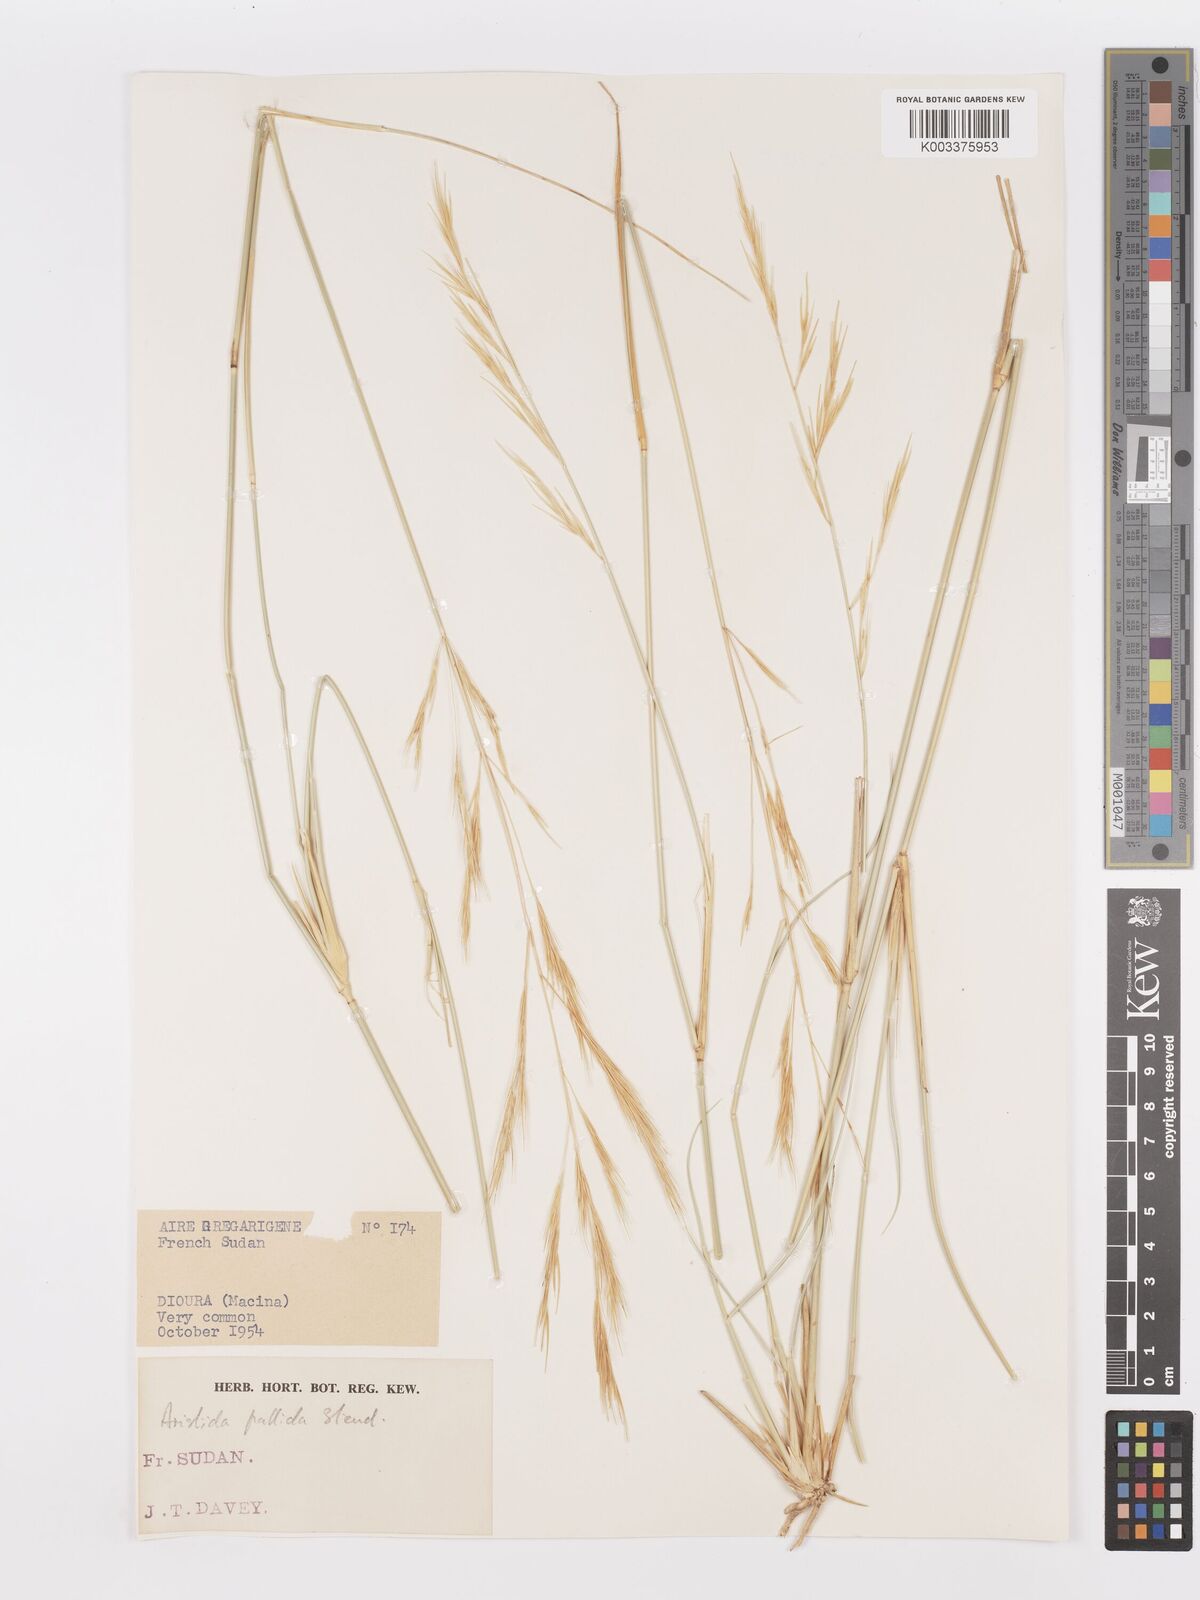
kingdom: Plantae
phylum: Tracheophyta
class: Liliopsida
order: Poales
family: Poaceae
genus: Aristida
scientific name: Aristida sieberiana
